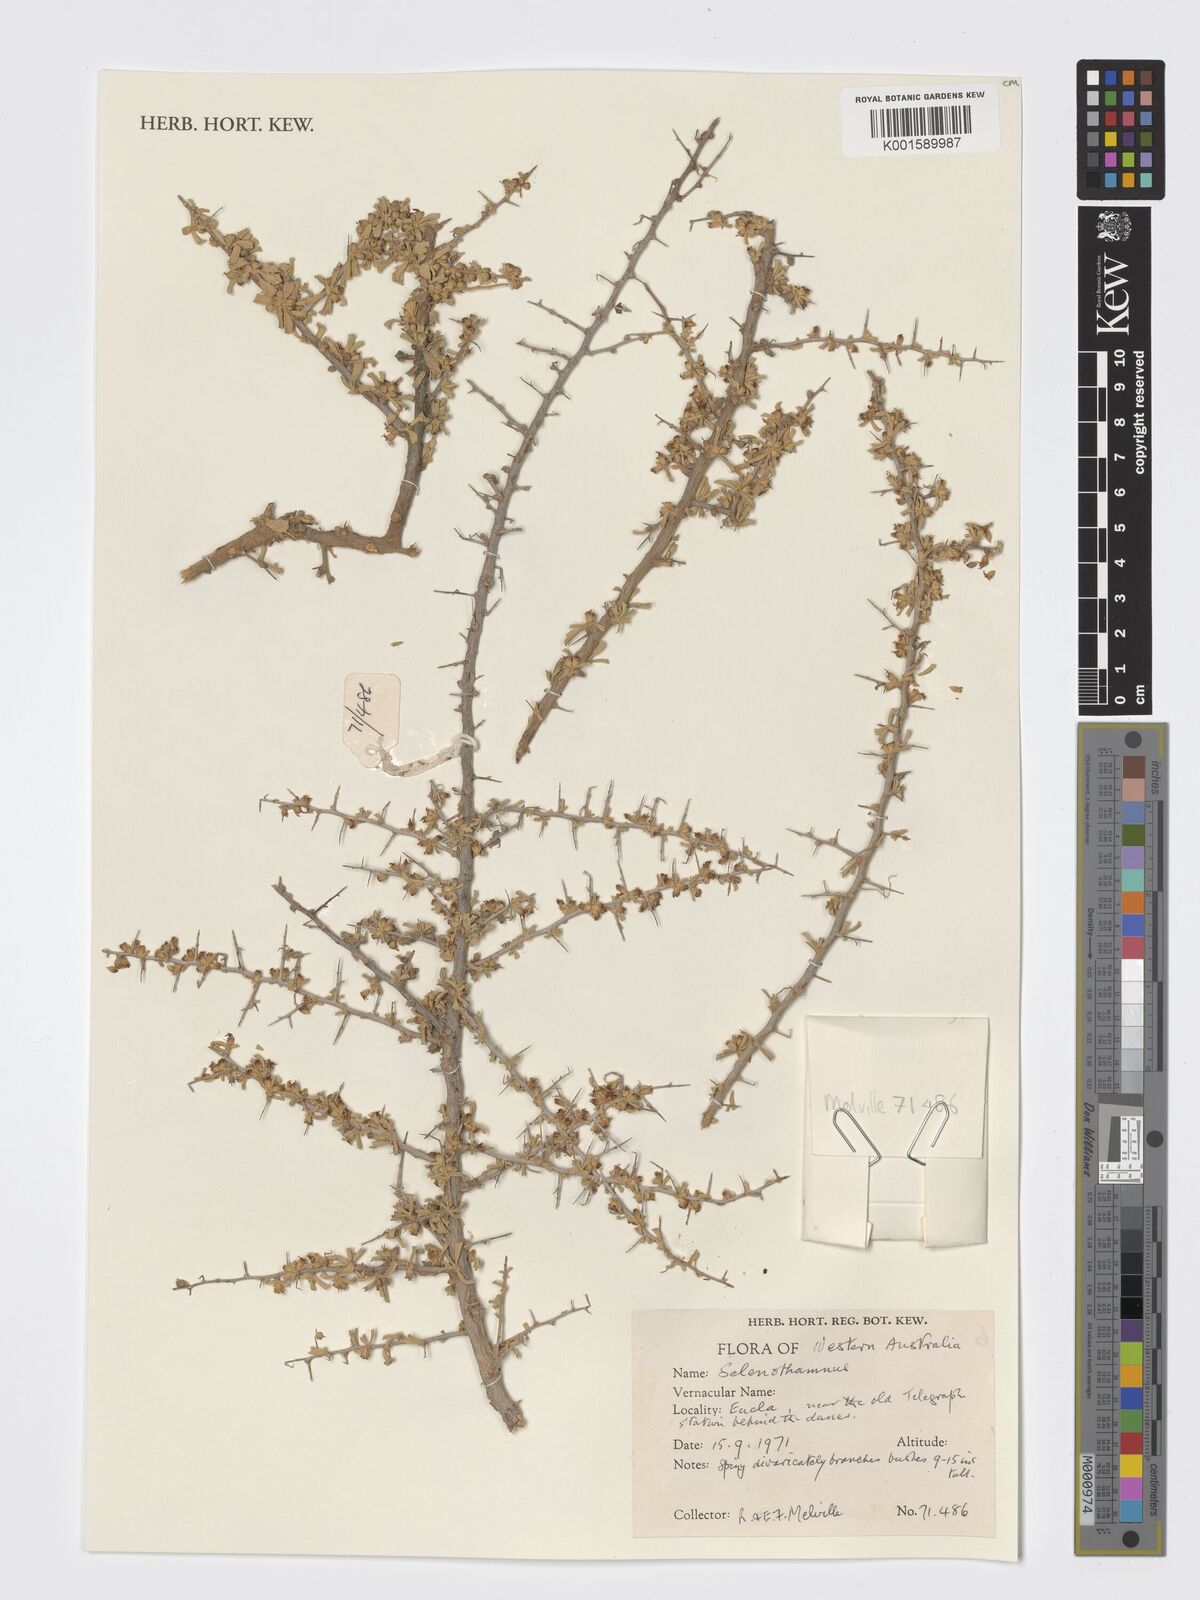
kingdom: Plantae
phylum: Tracheophyta
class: Magnoliopsida
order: Malvales
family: Malvaceae
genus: Lawrencia
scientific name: Lawrencia
